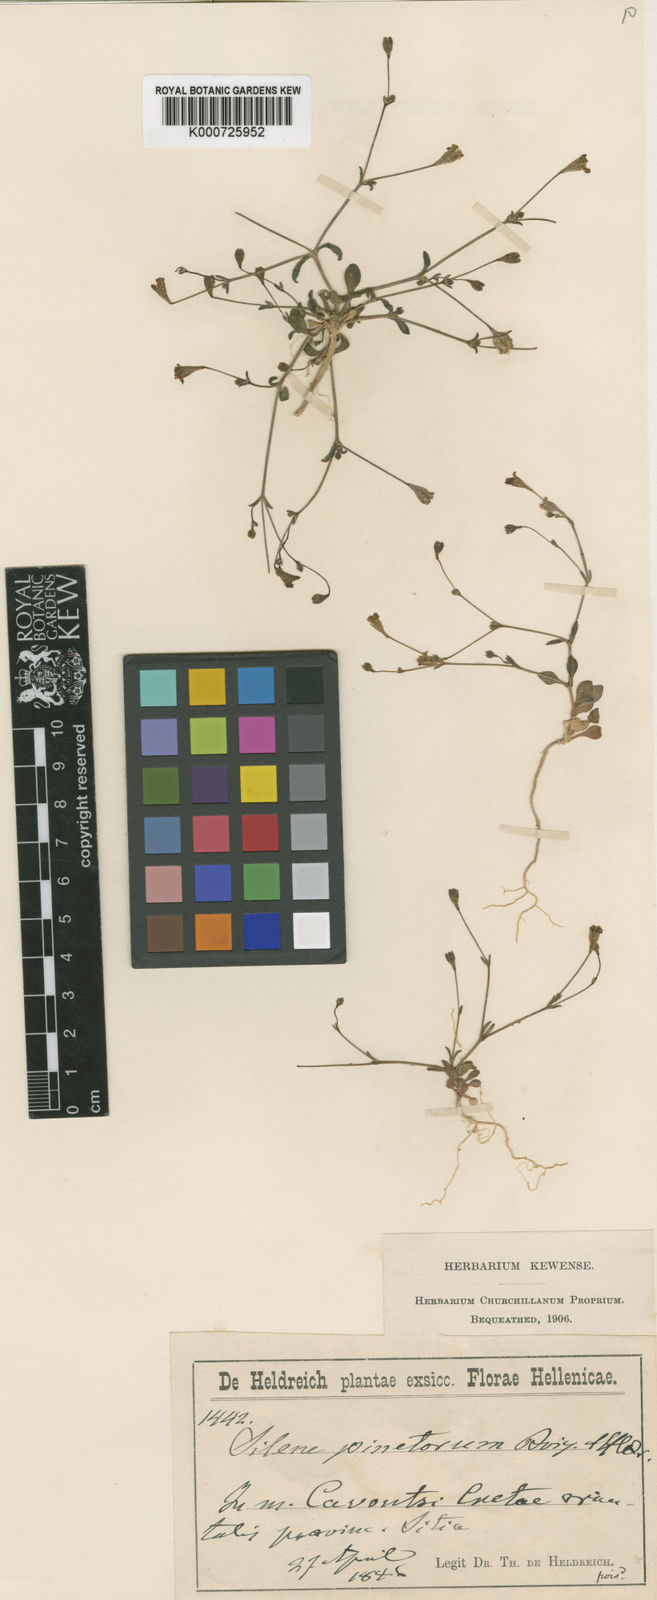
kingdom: Plantae
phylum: Tracheophyta
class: Magnoliopsida
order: Caryophyllales
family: Caryophyllaceae
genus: Silene
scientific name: Silene pinetorum
